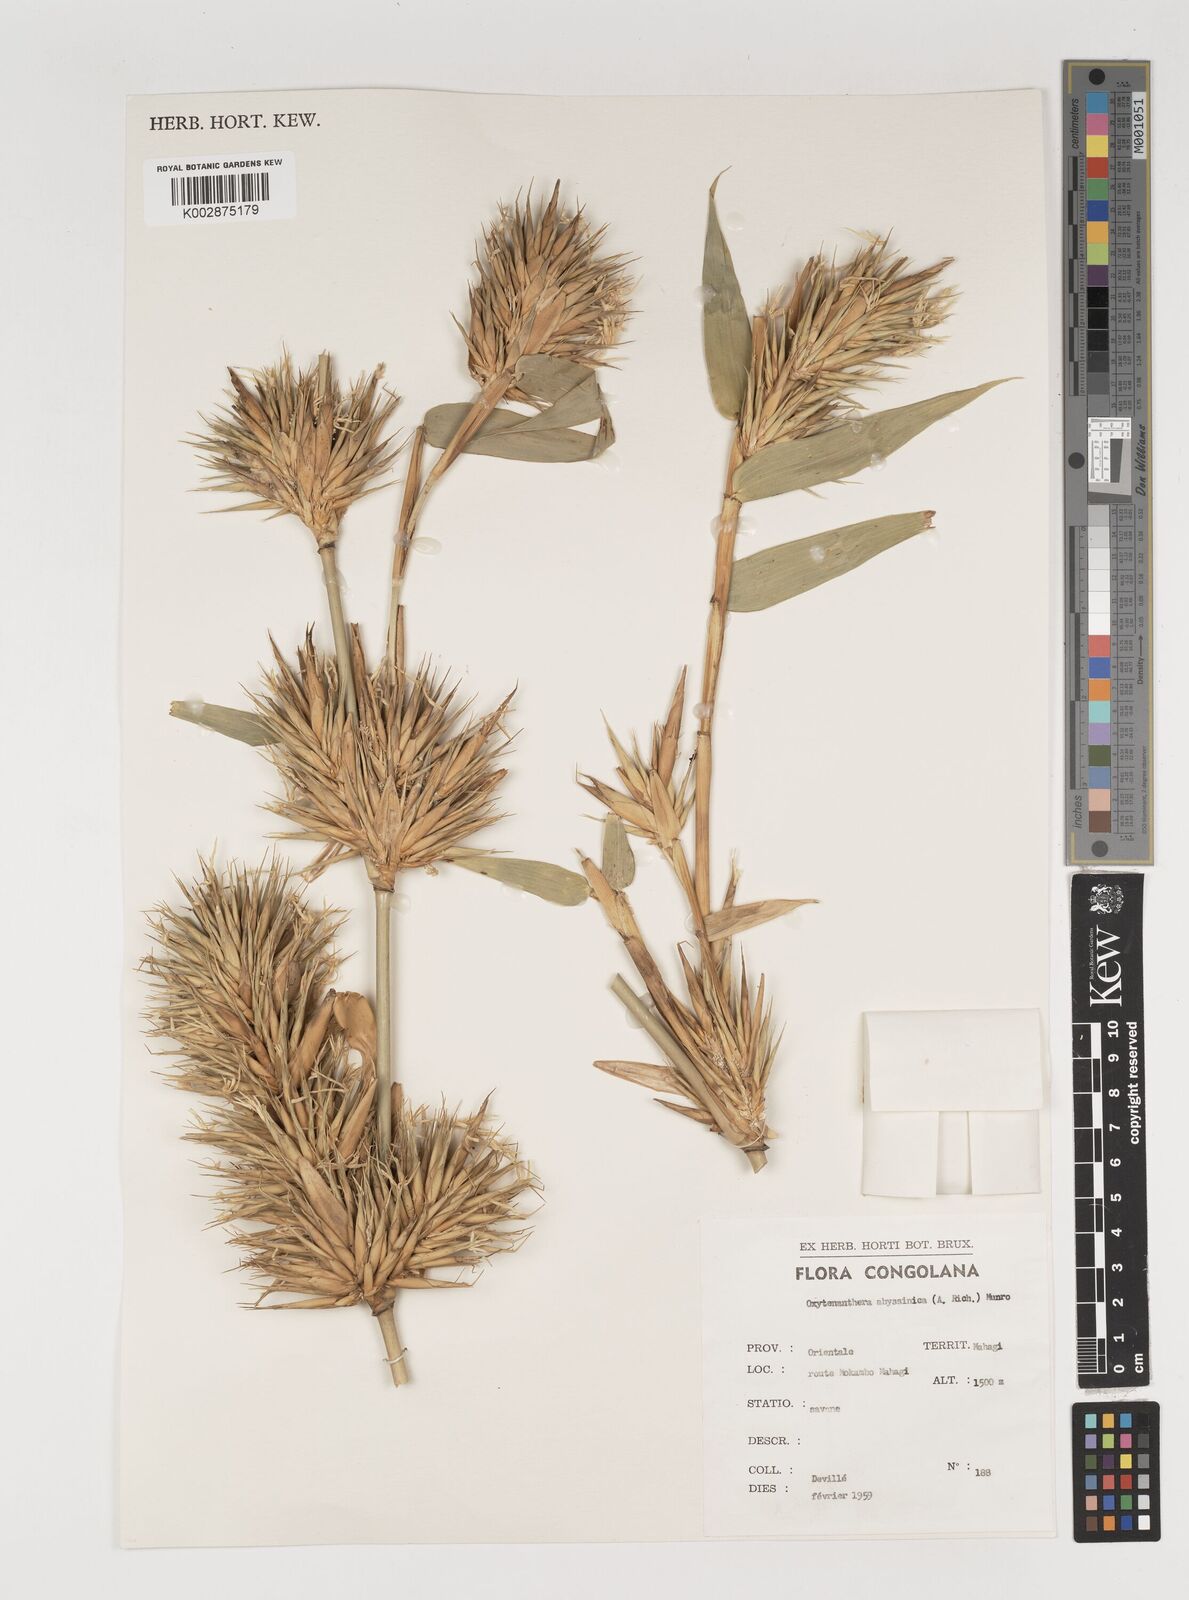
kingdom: Plantae
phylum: Tracheophyta
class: Liliopsida
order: Poales
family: Poaceae
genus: Oxytenanthera
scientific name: Oxytenanthera abyssinica
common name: Wine bamboo
